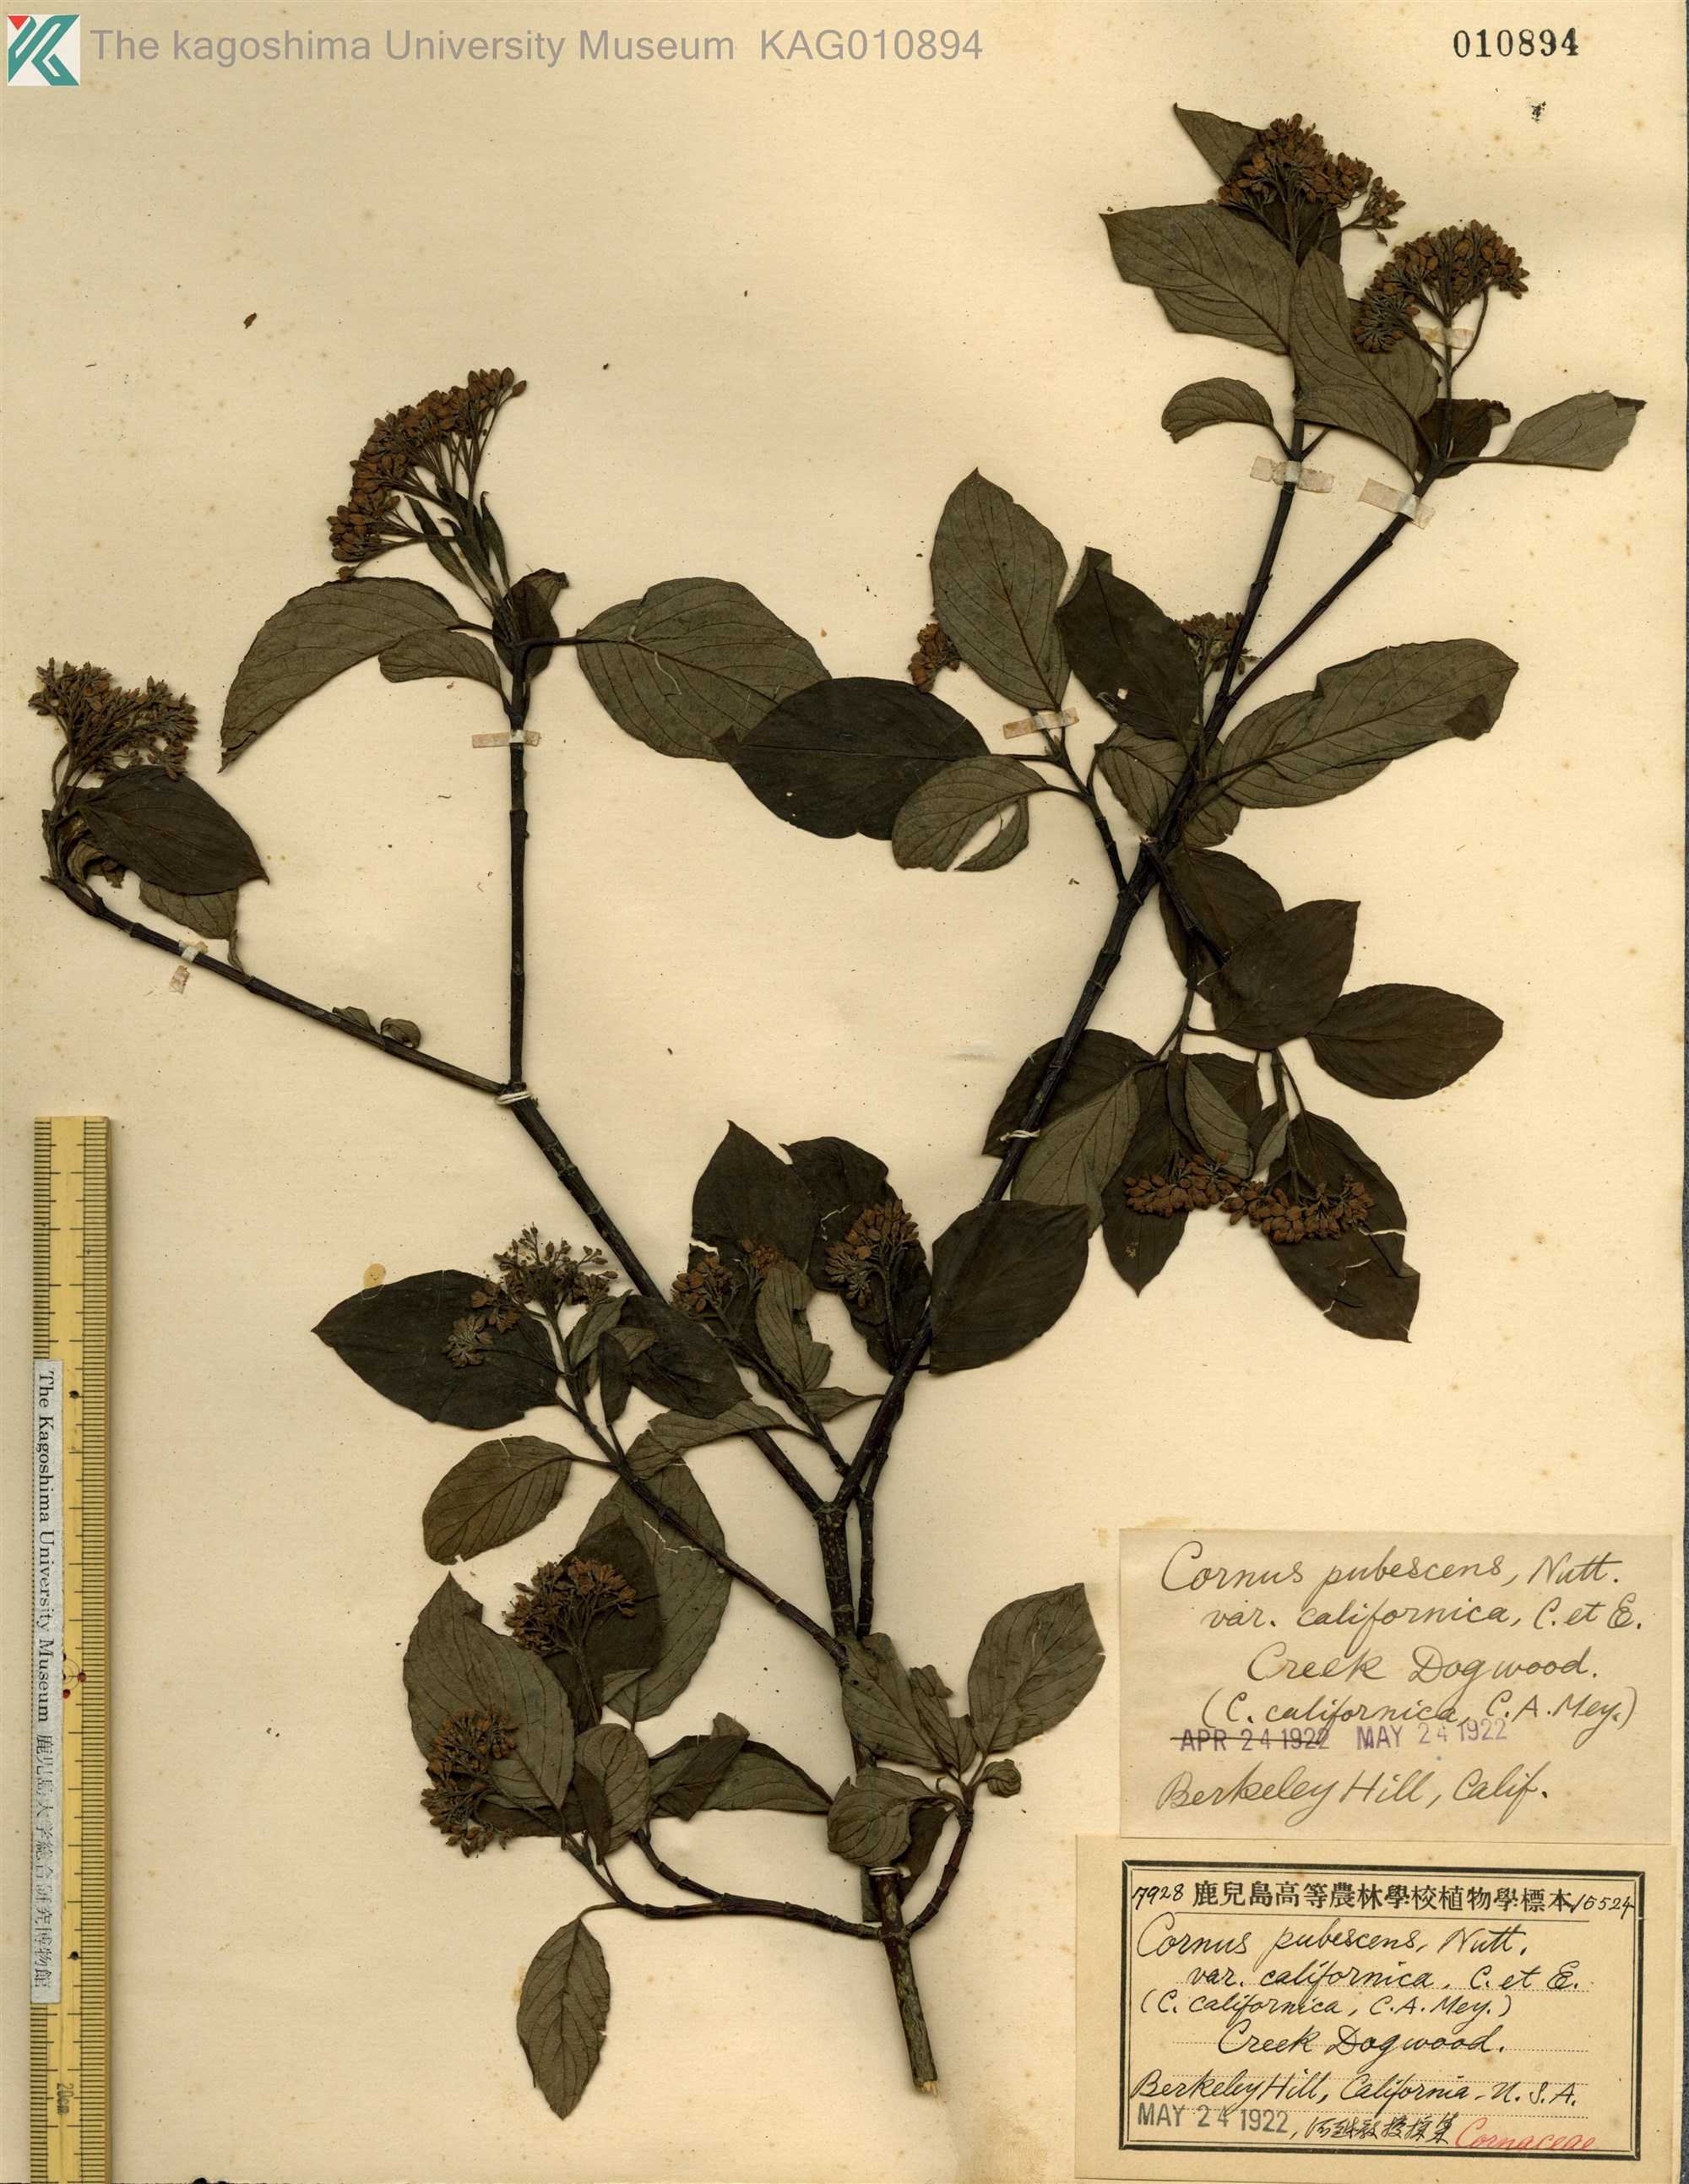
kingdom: Plantae
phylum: Tracheophyta
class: Magnoliopsida
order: Cornales
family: Cornaceae
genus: Cornus
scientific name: Cornus torreyi
